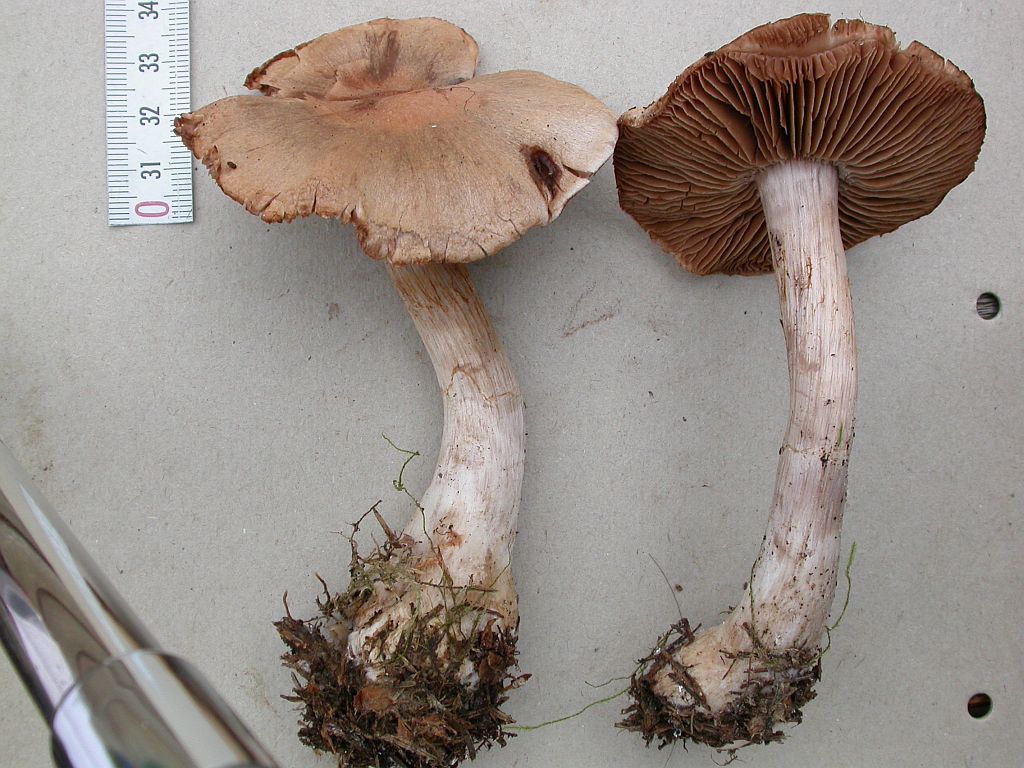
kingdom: Fungi
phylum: Basidiomycota
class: Agaricomycetes
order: Agaricales
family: Cortinariaceae
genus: Cortinarius
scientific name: Cortinarius malachius
